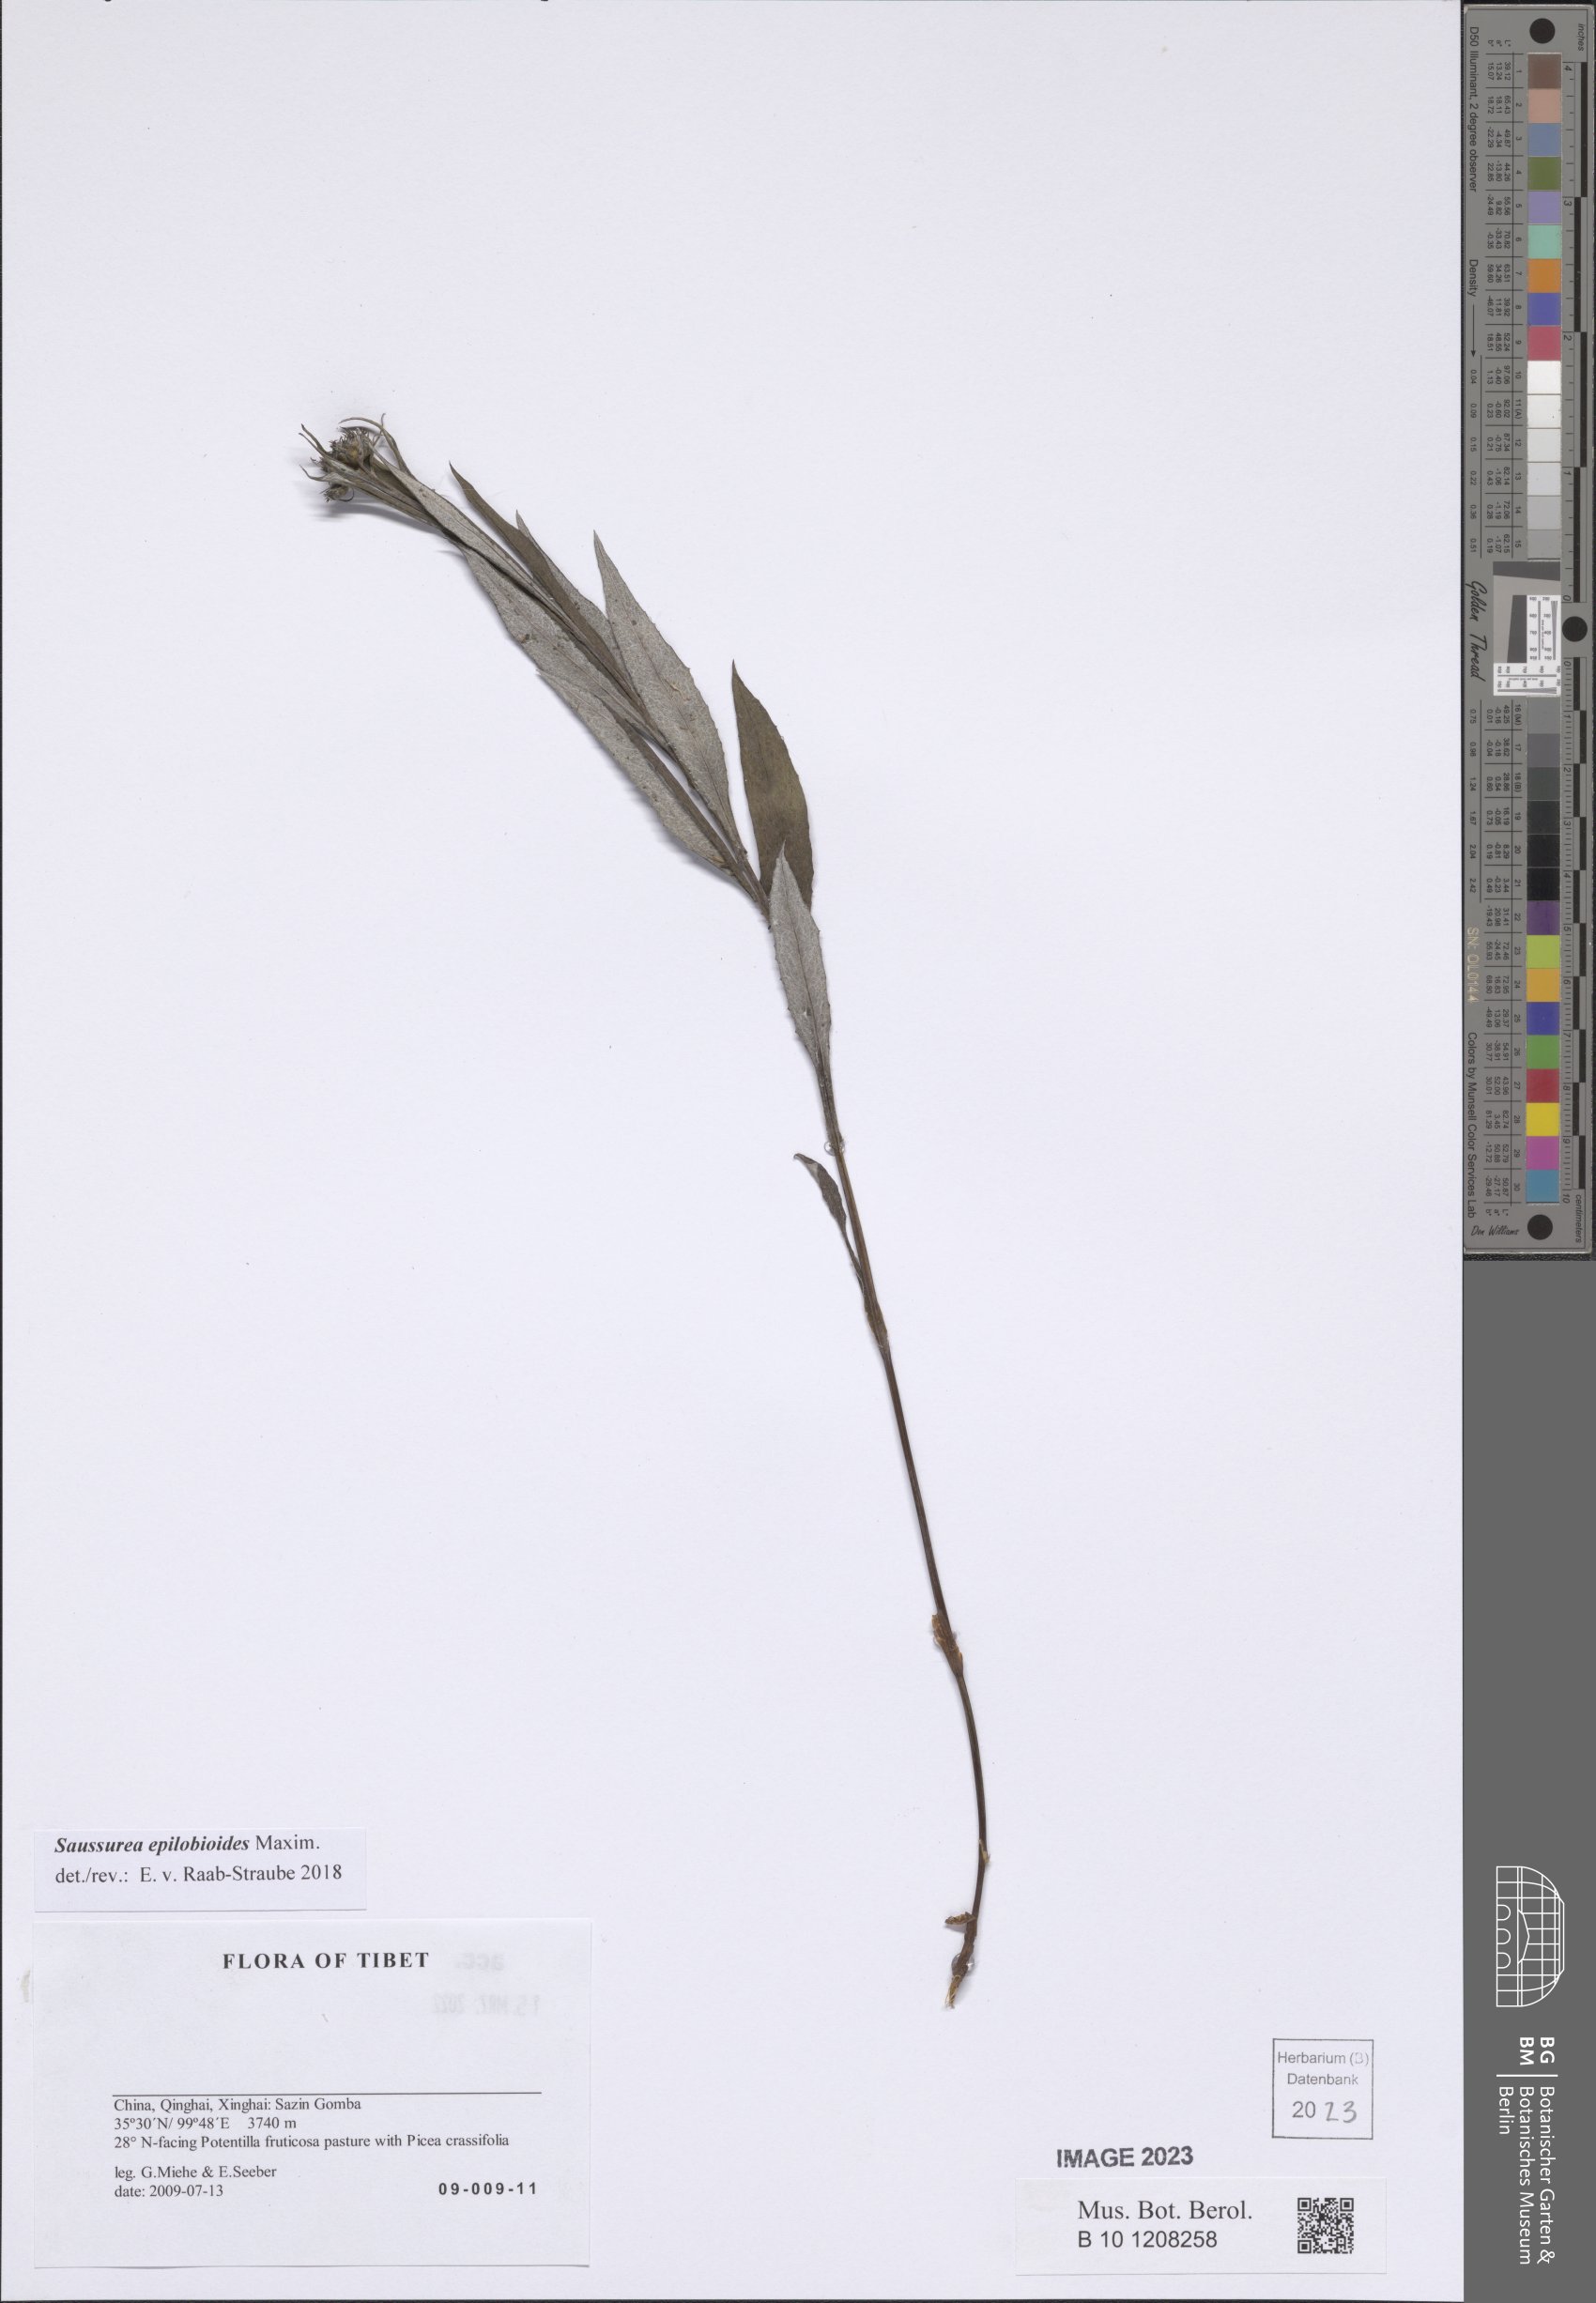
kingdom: Plantae
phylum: Tracheophyta
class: Magnoliopsida
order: Asterales
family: Asteraceae
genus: Saussurea
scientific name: Saussurea epilobioides
